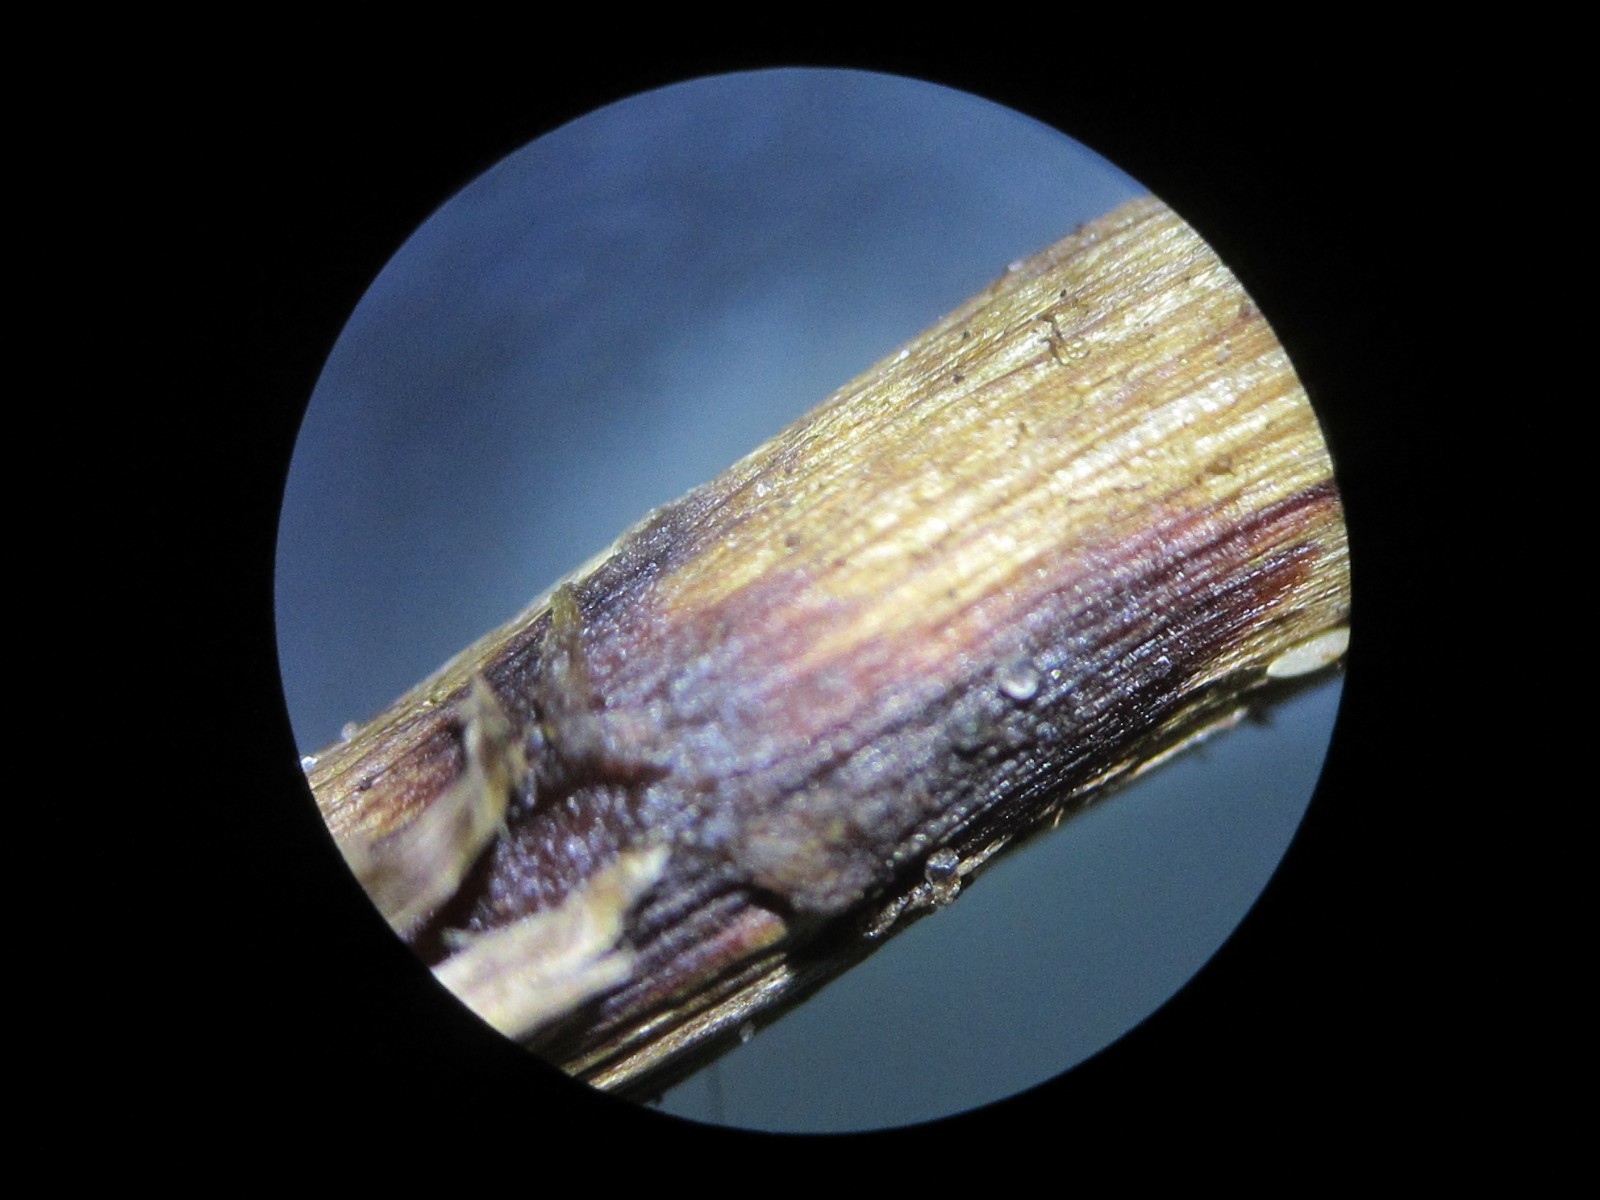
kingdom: Fungi
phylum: Basidiomycota
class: Agaricomycetes
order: Agaricales
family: Cortinariaceae
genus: Cortinarius
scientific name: Cortinarius
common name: kegle-slørhat
